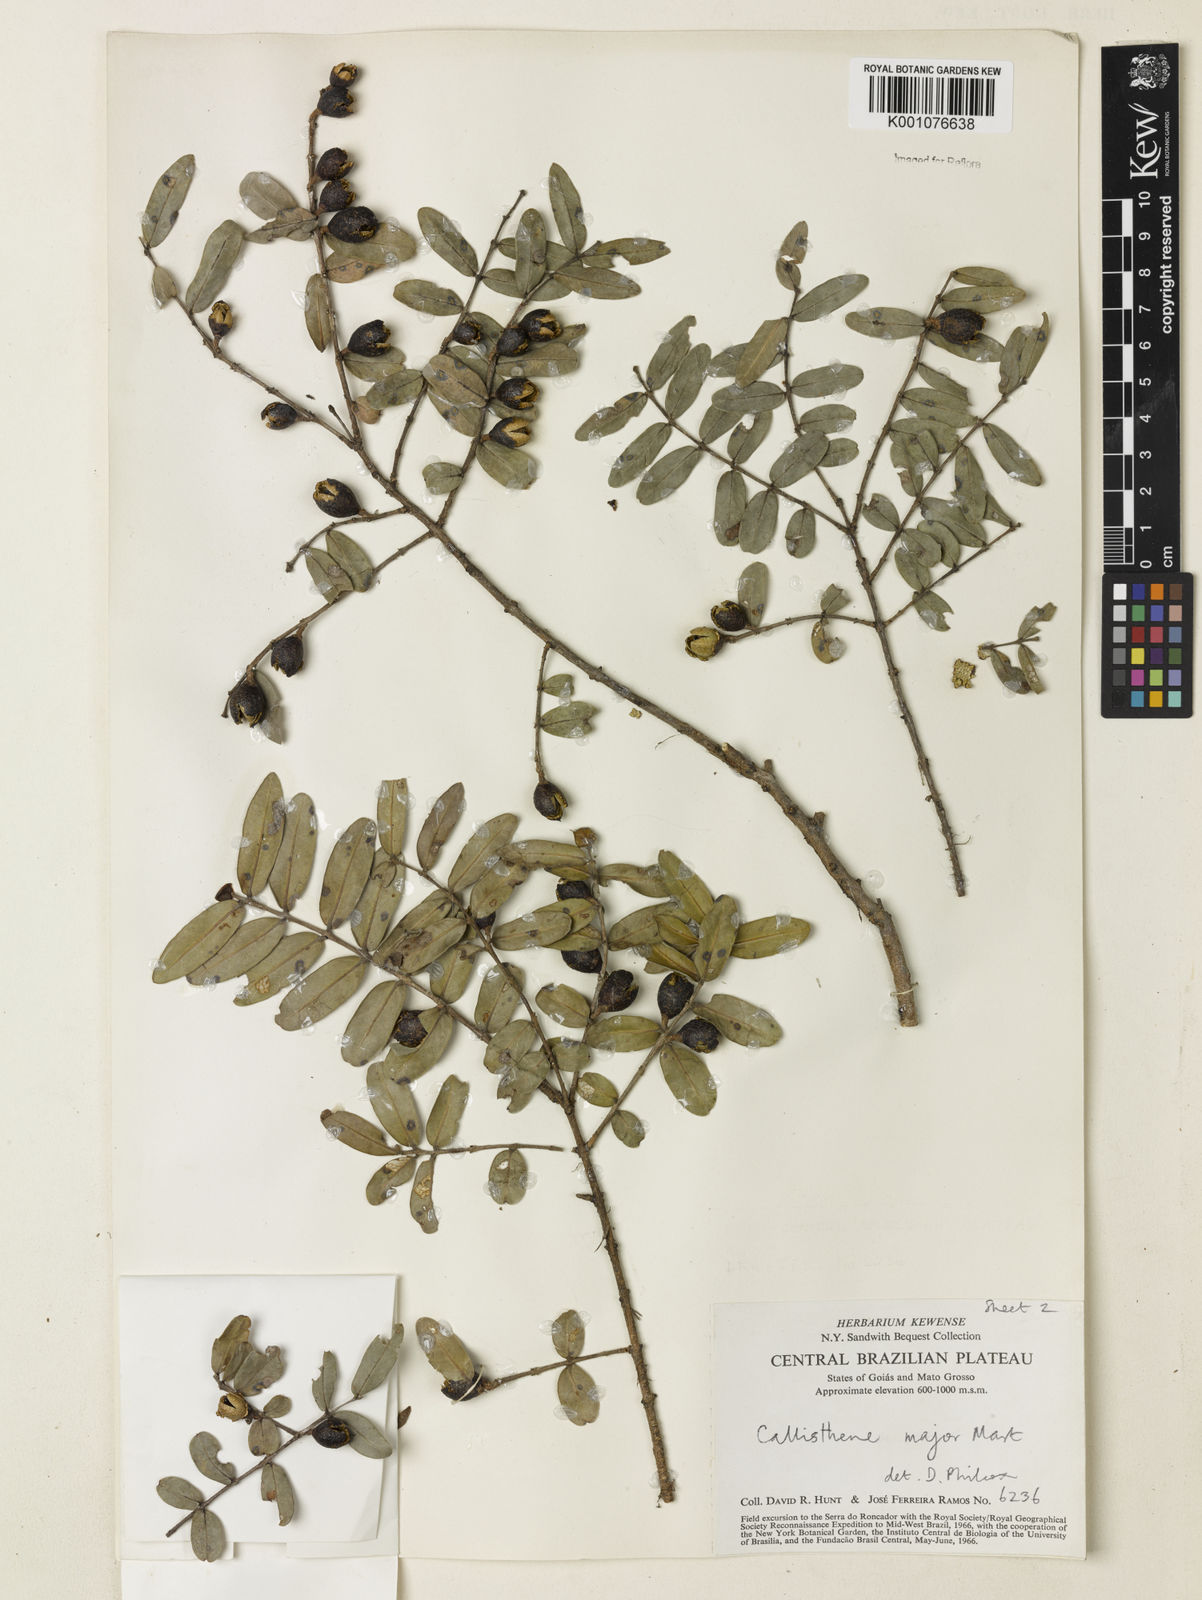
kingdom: Plantae
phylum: Tracheophyta
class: Magnoliopsida
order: Myrtales
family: Vochysiaceae
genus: Callisthene
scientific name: Callisthene major
